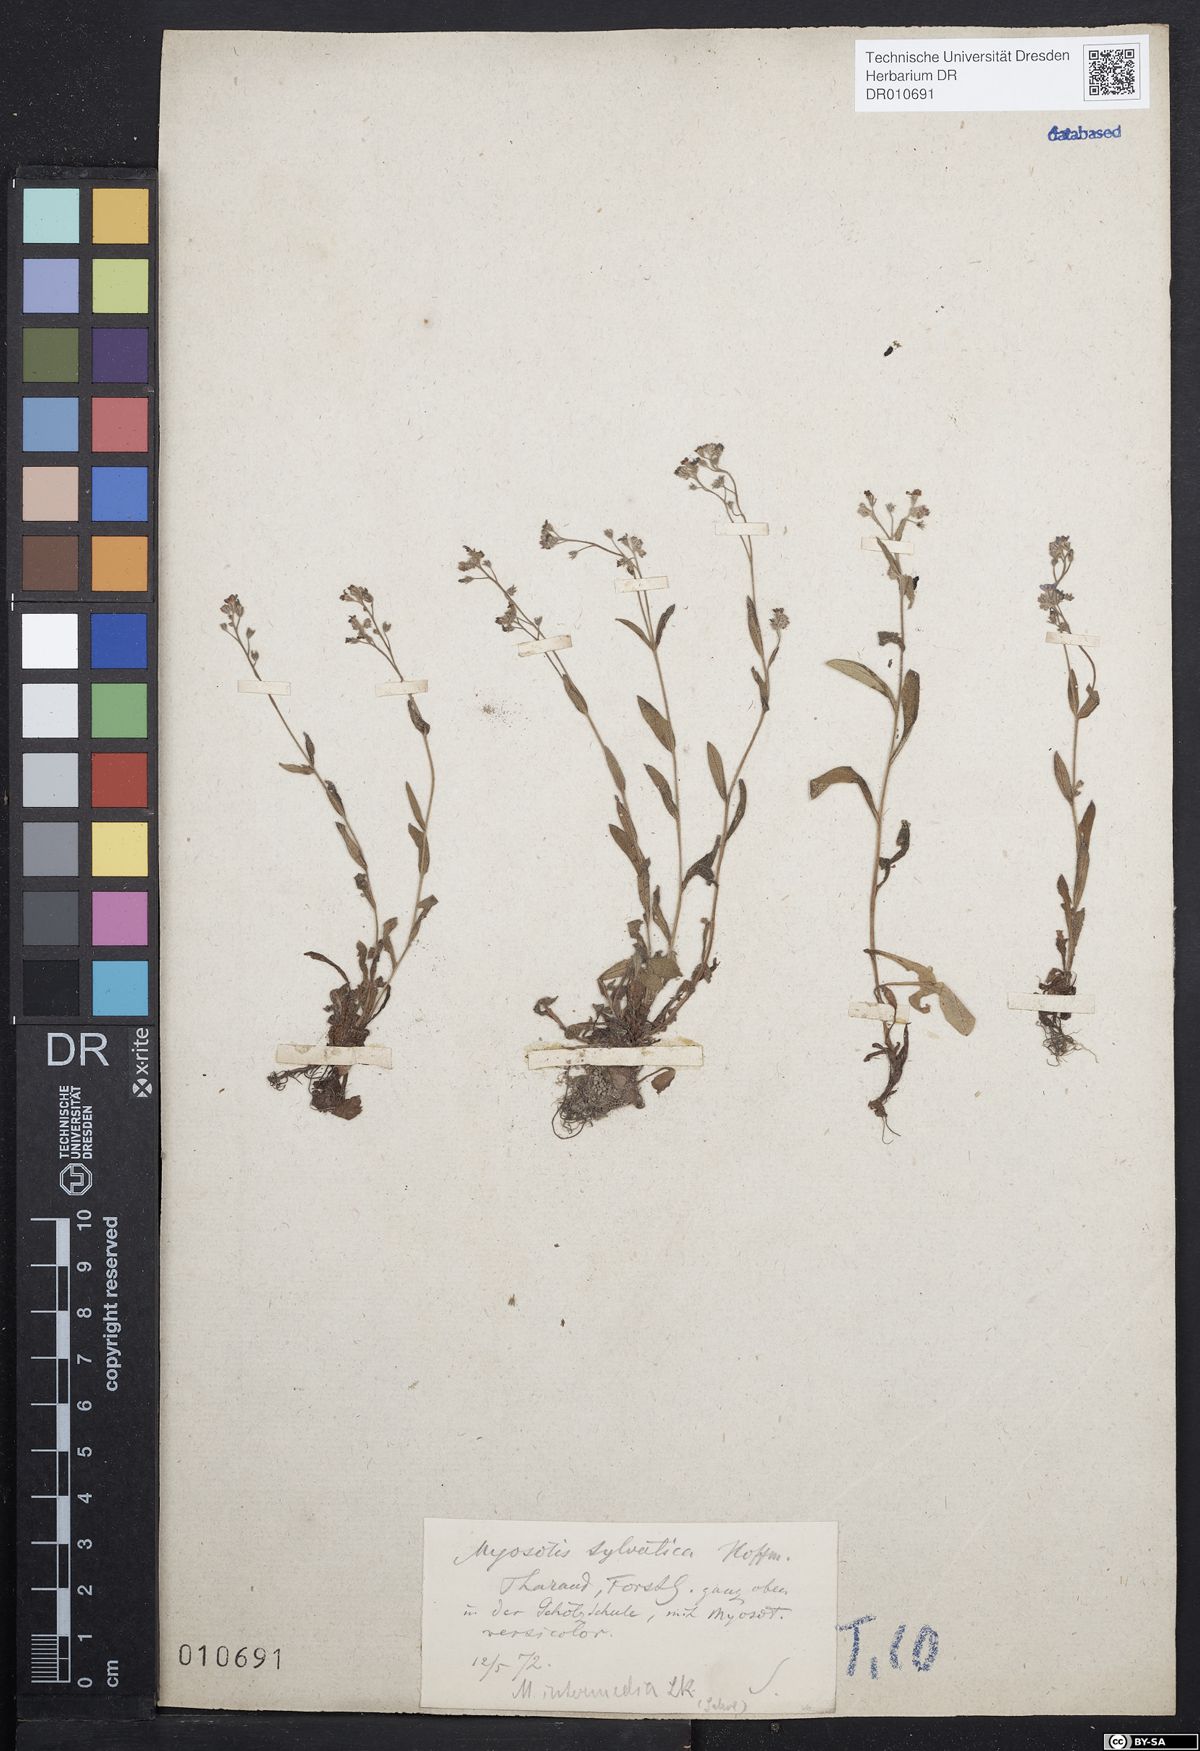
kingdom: Plantae
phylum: Tracheophyta
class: Magnoliopsida
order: Boraginales
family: Boraginaceae
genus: Myosotis
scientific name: Myosotis arvensis
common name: Field forget-me-not
